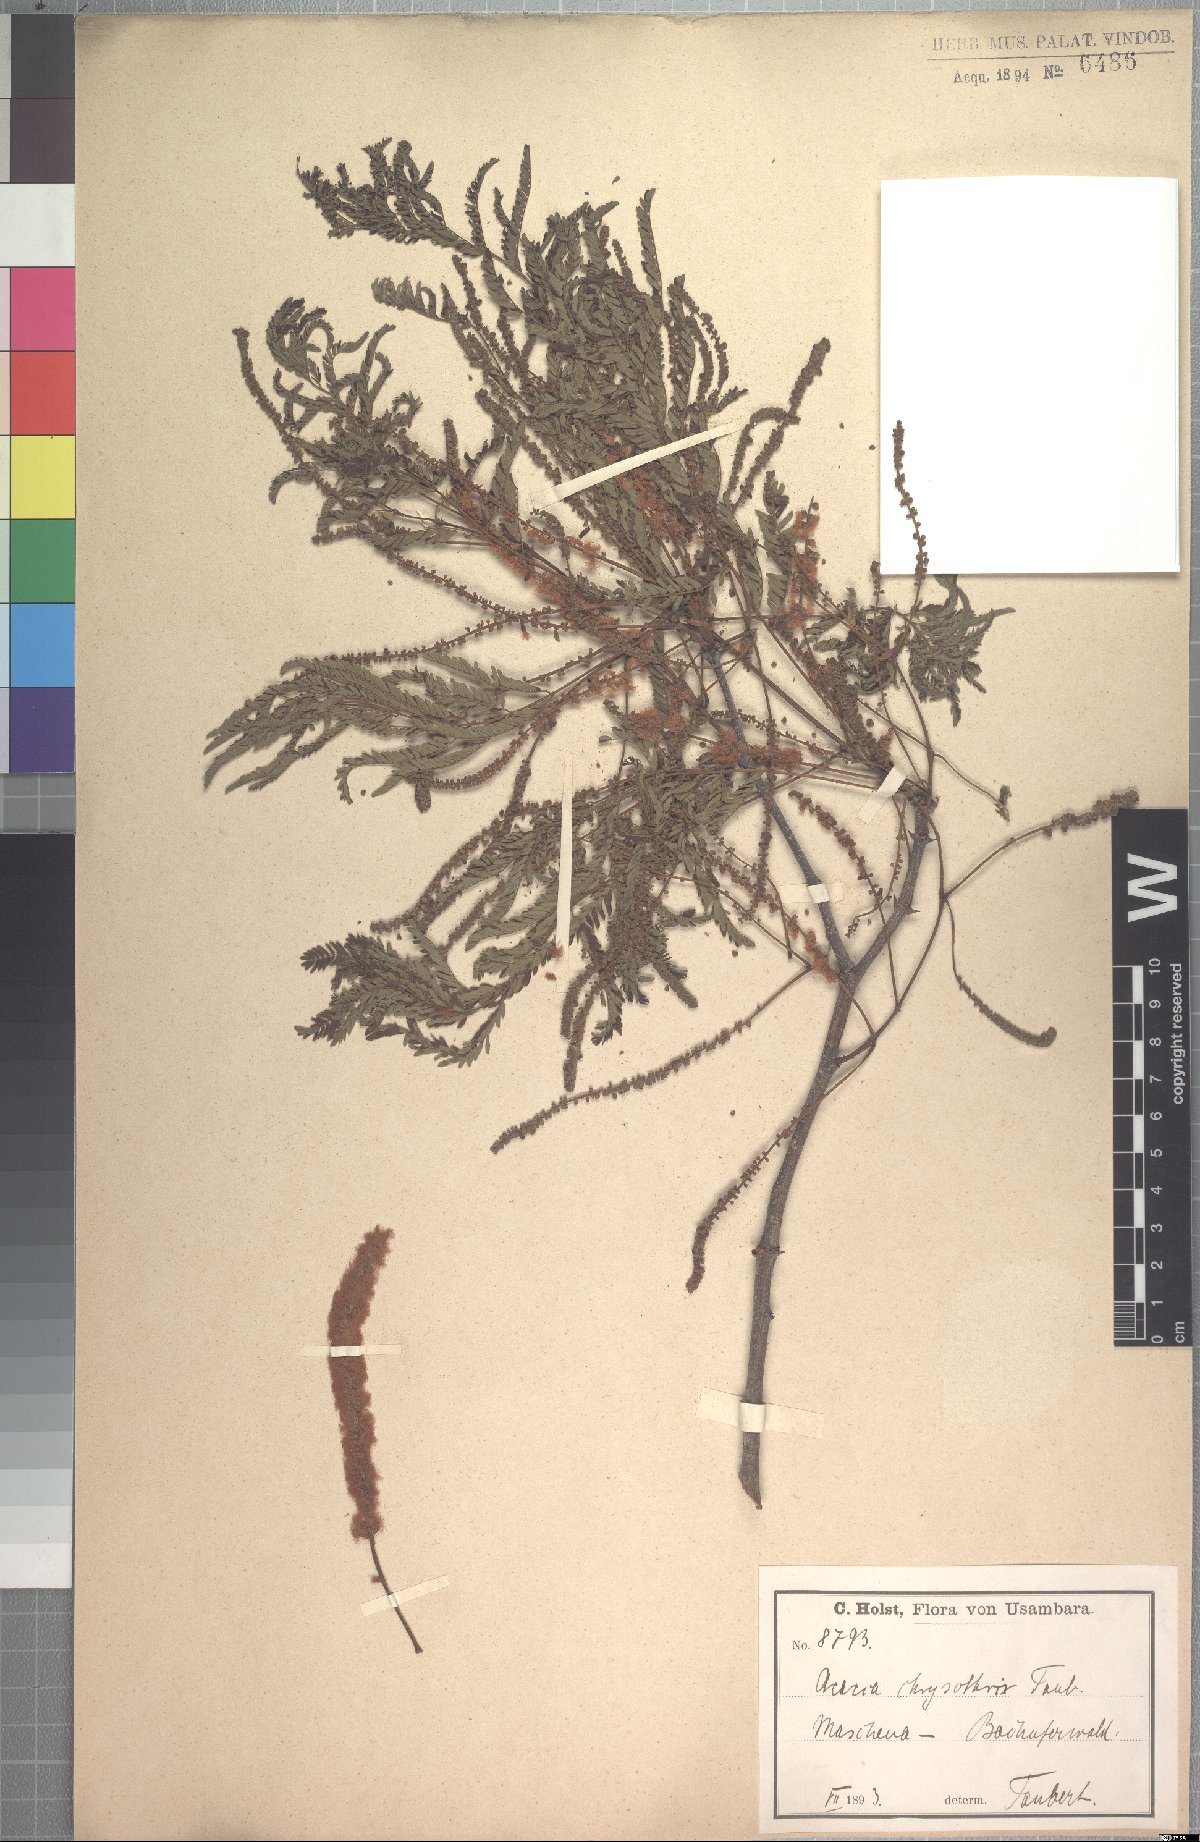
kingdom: Plantae
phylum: Tracheophyta
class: Magnoliopsida
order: Fabales
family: Fabaceae
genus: Senegalia
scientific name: Senegalia rovumae
